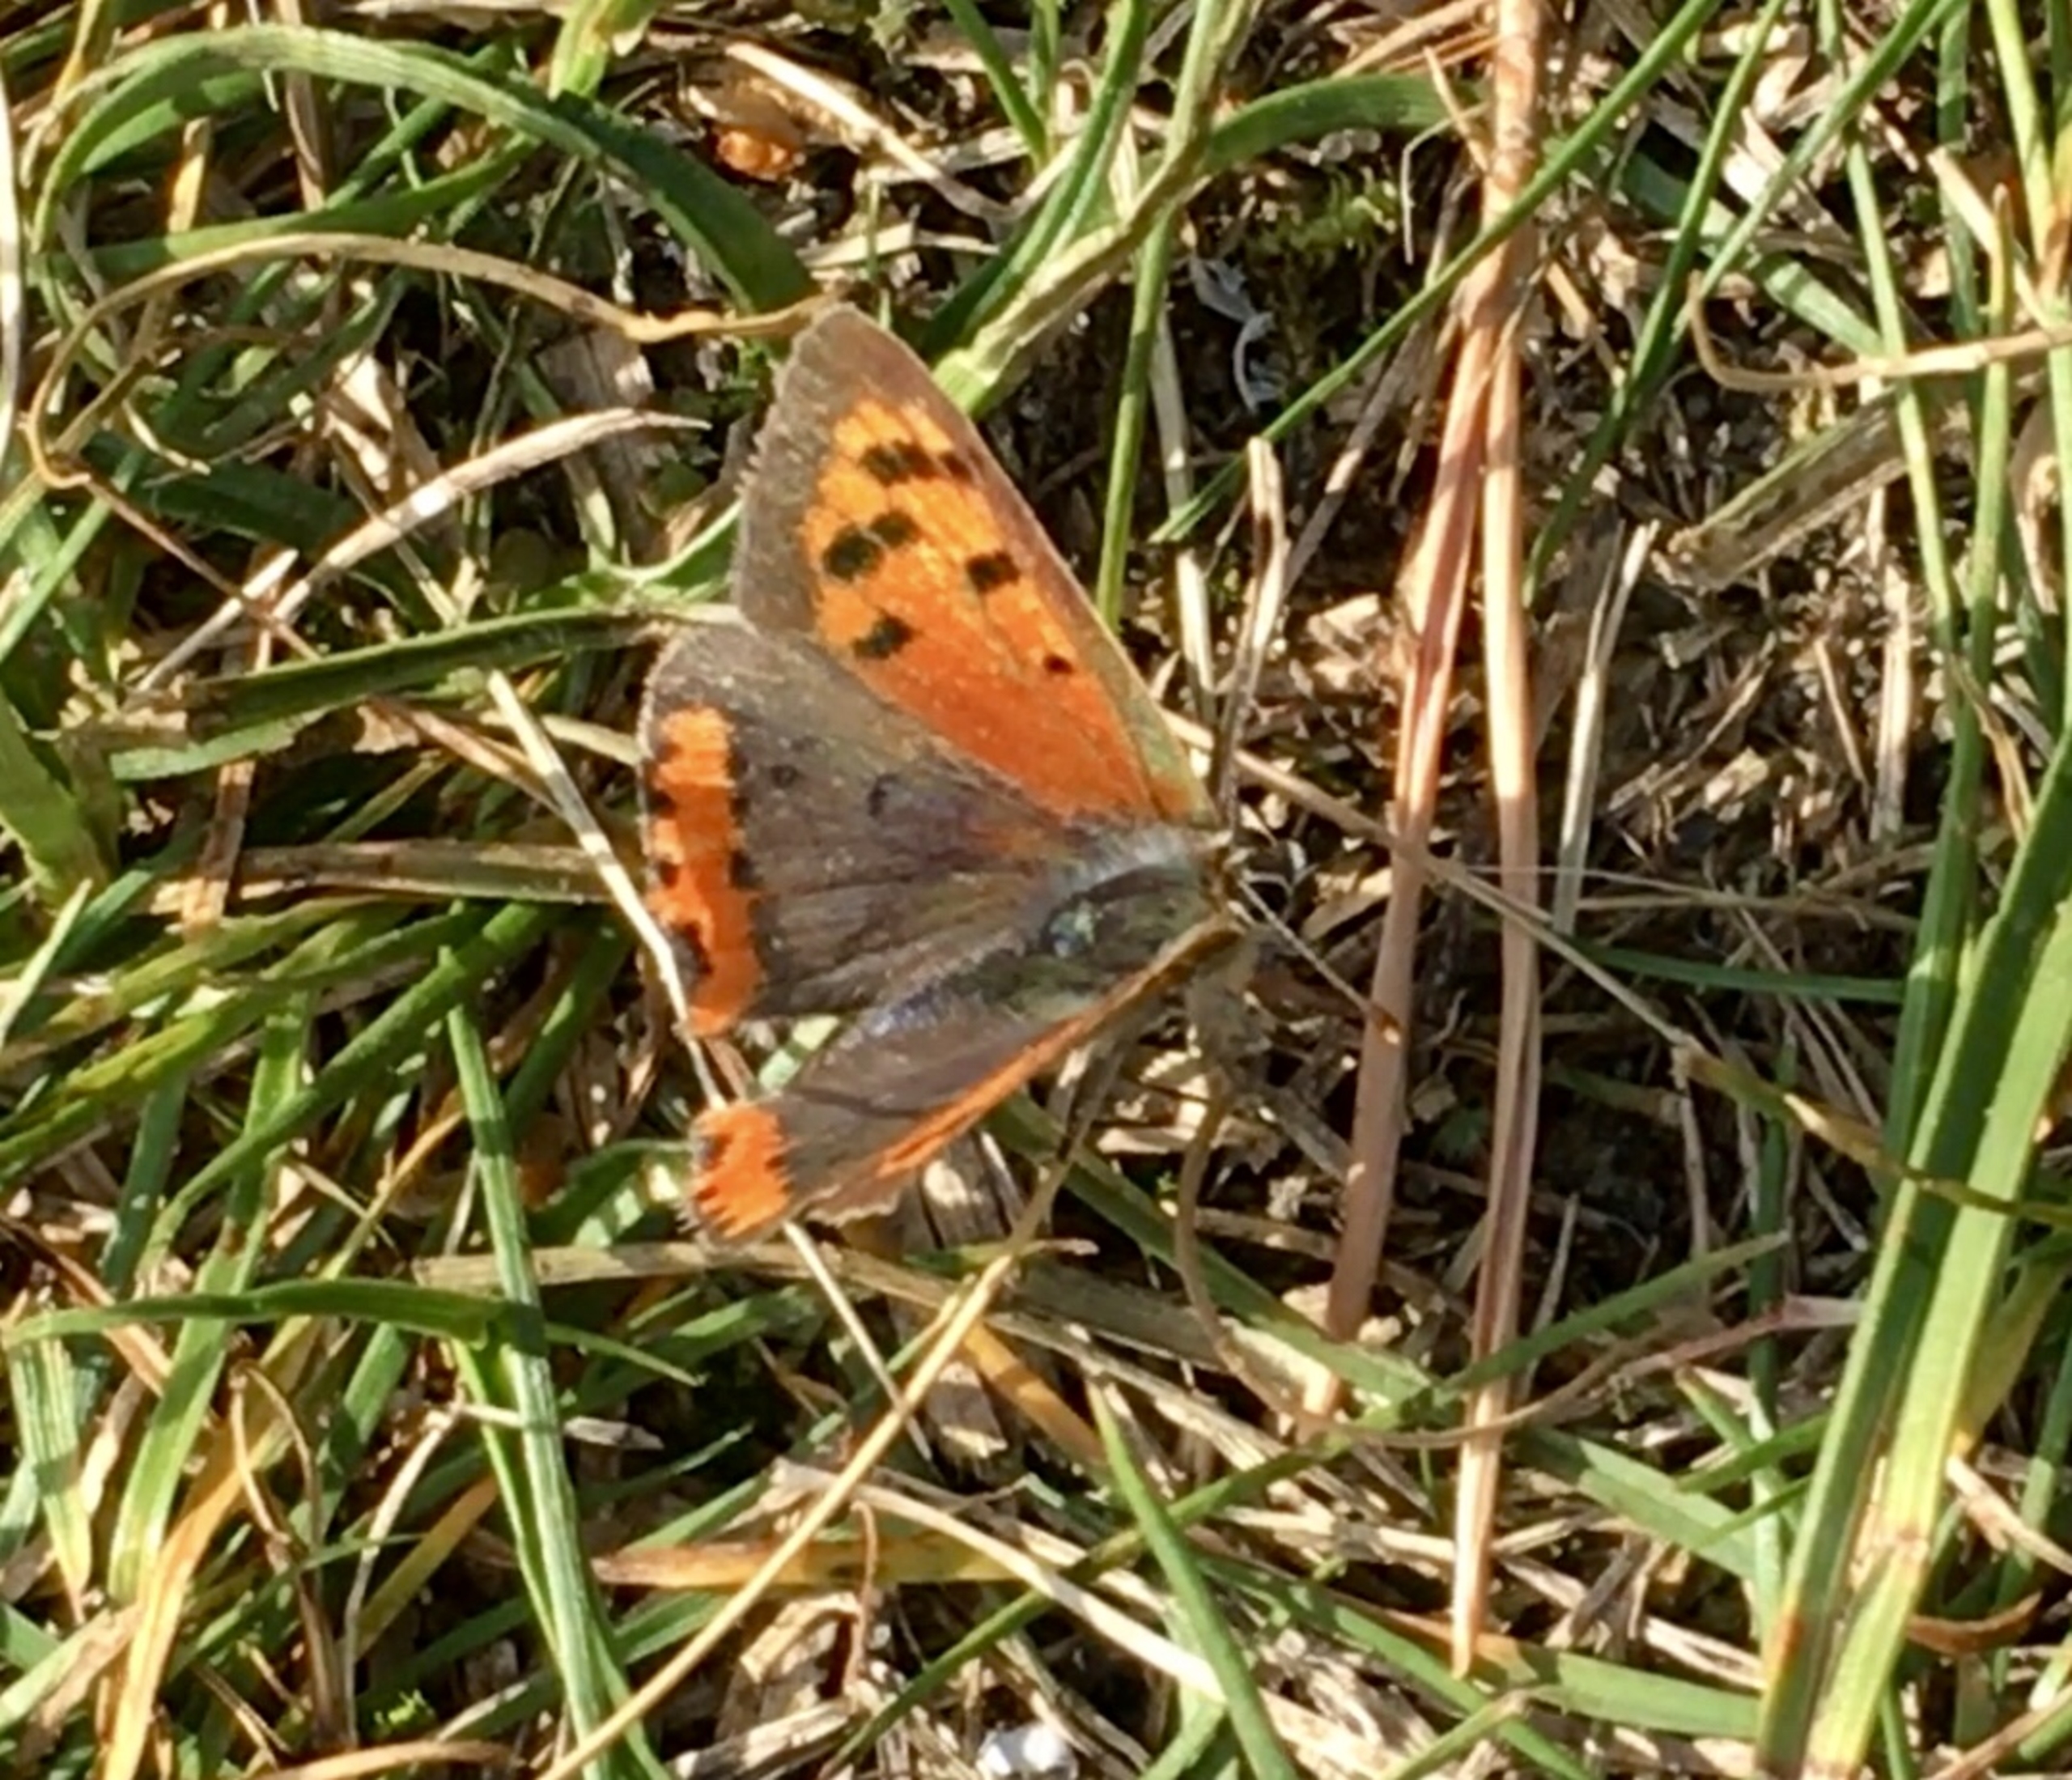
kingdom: Animalia
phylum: Arthropoda
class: Insecta
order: Lepidoptera
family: Lycaenidae
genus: Lycaena
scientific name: Lycaena phlaeas
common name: Lille ildfugl
